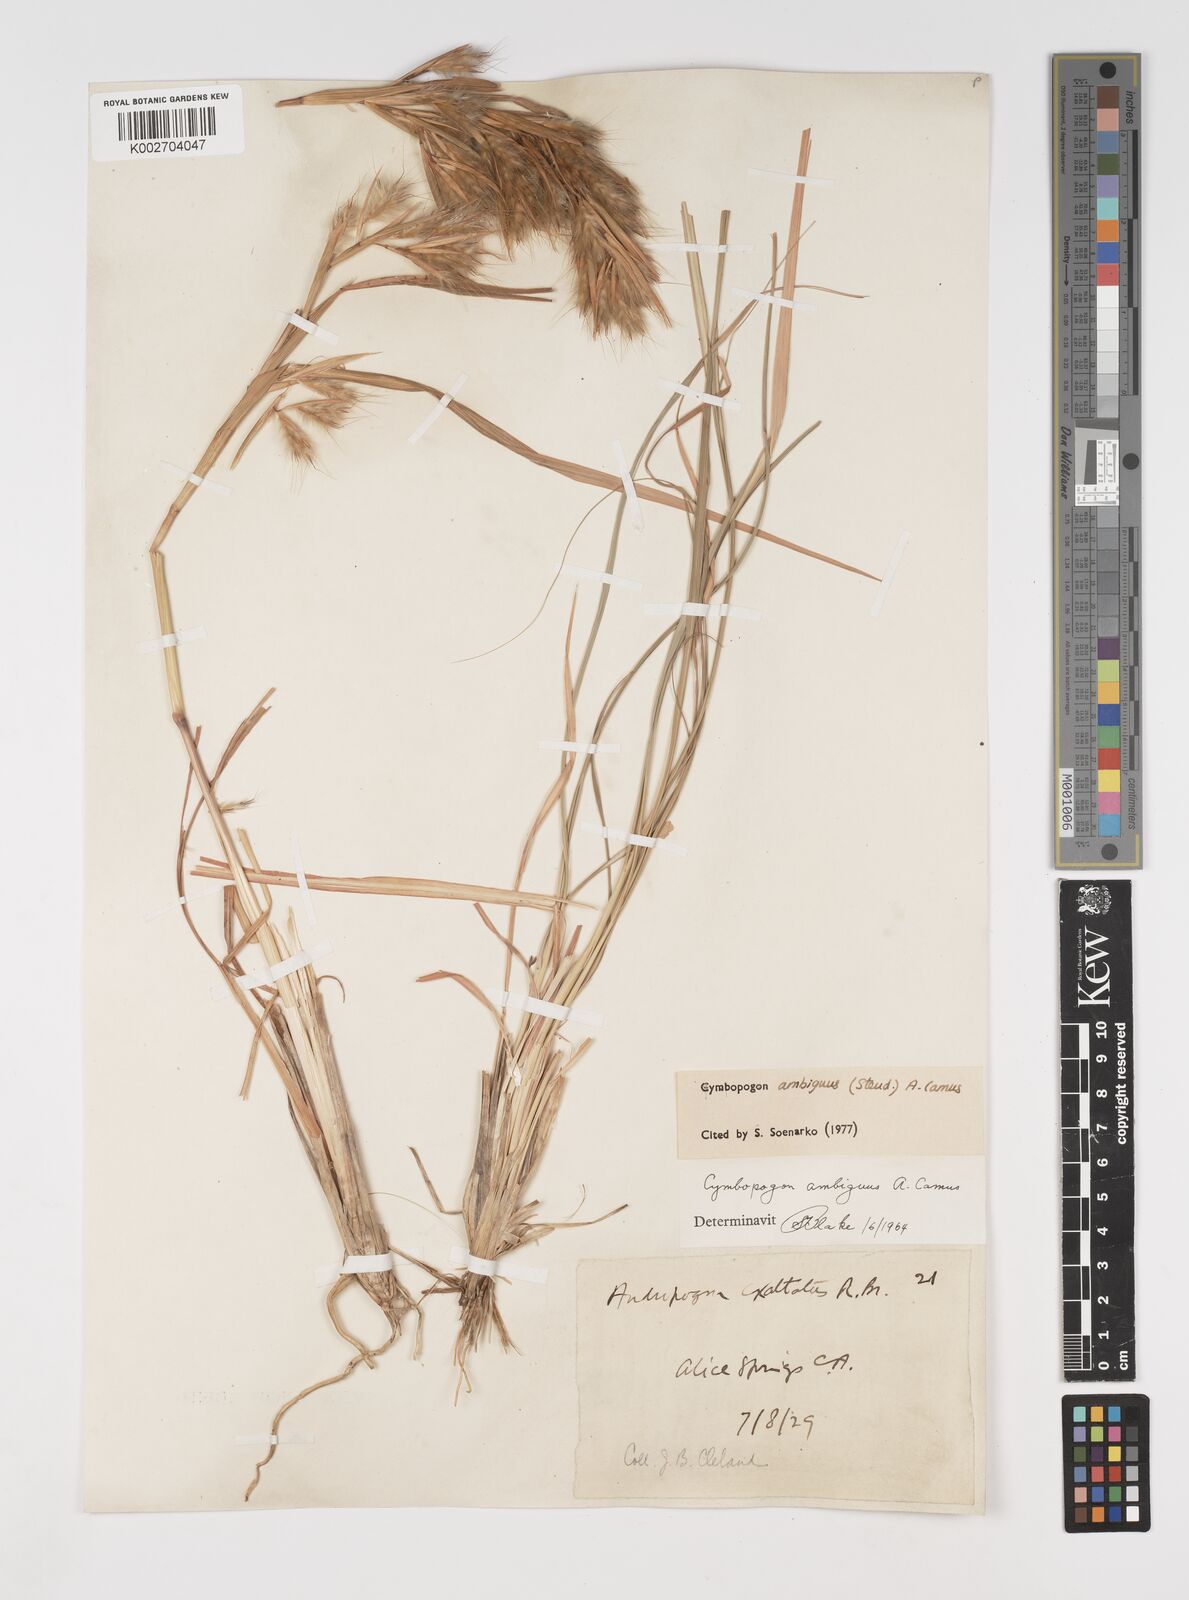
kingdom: Plantae
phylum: Tracheophyta
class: Liliopsida
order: Poales
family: Poaceae
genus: Cymbopogon
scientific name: Cymbopogon ambiguus
